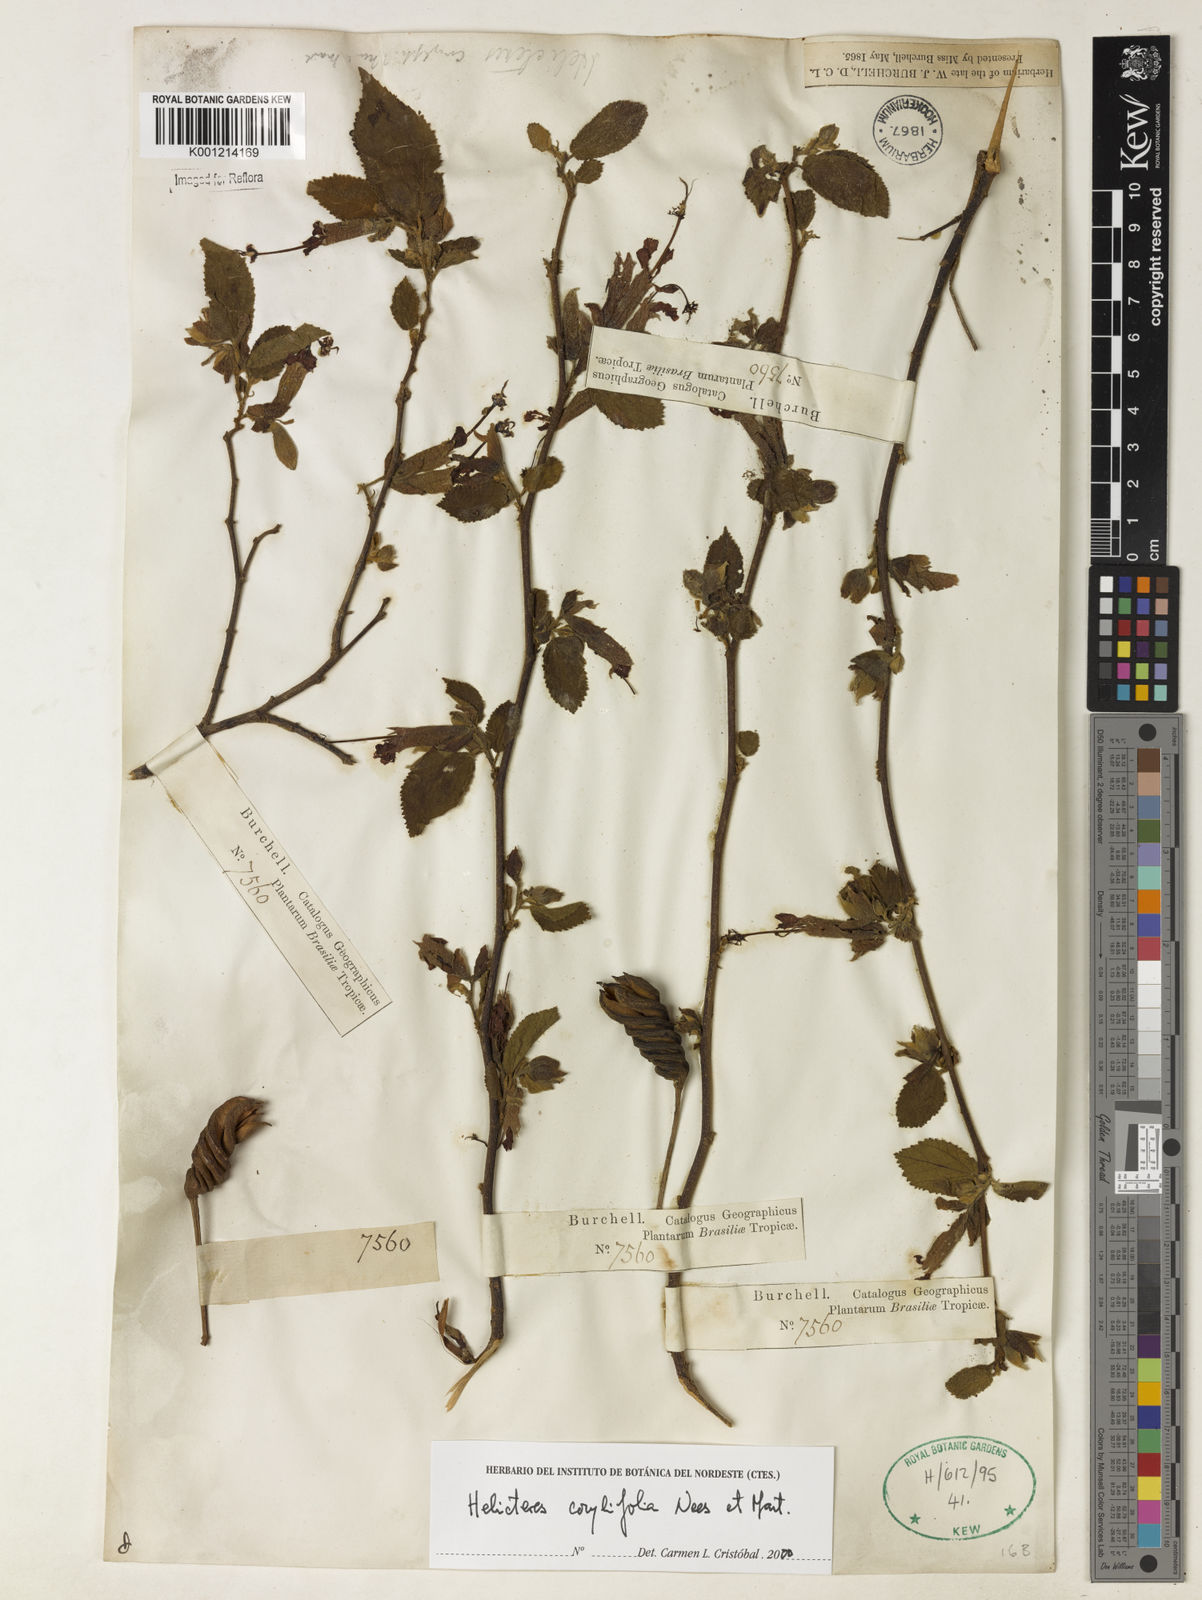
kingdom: Plantae
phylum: Tracheophyta
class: Magnoliopsida
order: Malvales
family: Malvaceae
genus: Helicteres
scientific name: Helicteres corylifolia
